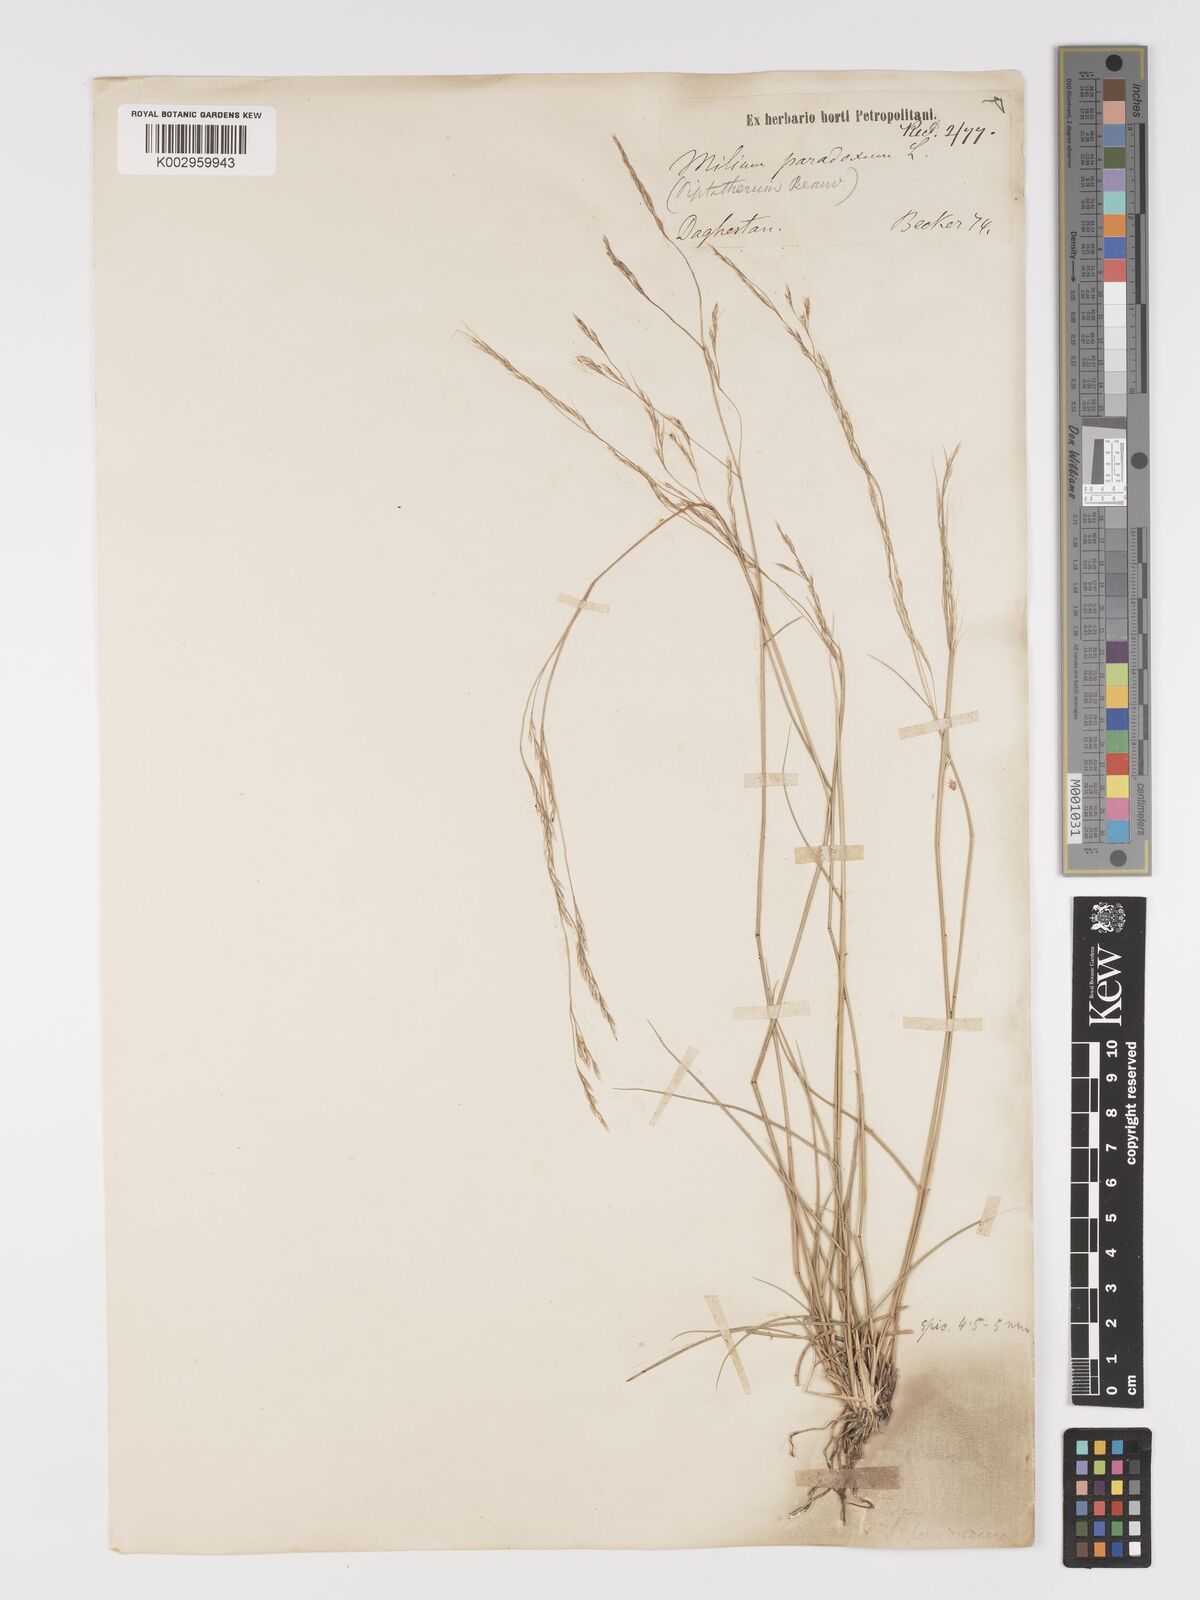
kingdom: Plantae
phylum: Tracheophyta
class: Liliopsida
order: Poales
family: Poaceae
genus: Stipa
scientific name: Stipa conferta
